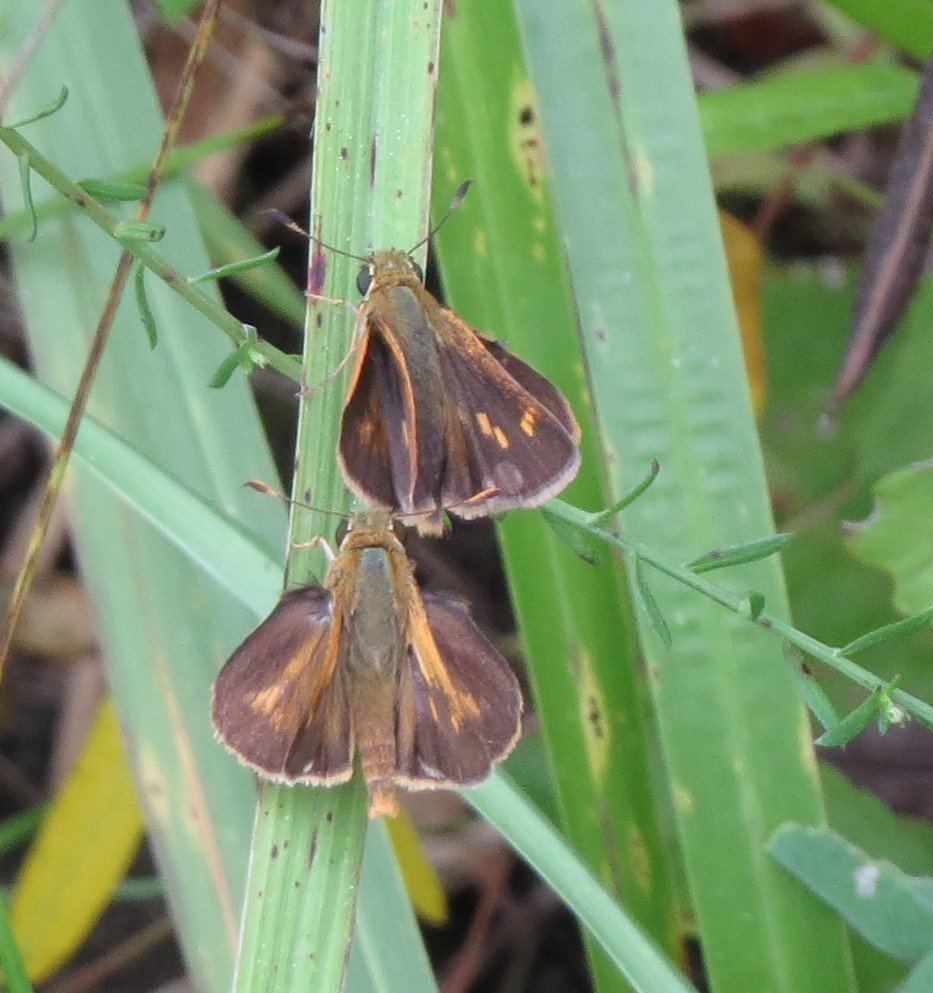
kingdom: Animalia
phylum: Arthropoda
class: Insecta
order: Lepidoptera
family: Hesperiidae
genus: Wallengrenia
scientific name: Wallengrenia otho
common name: Southern Broken-Dash
